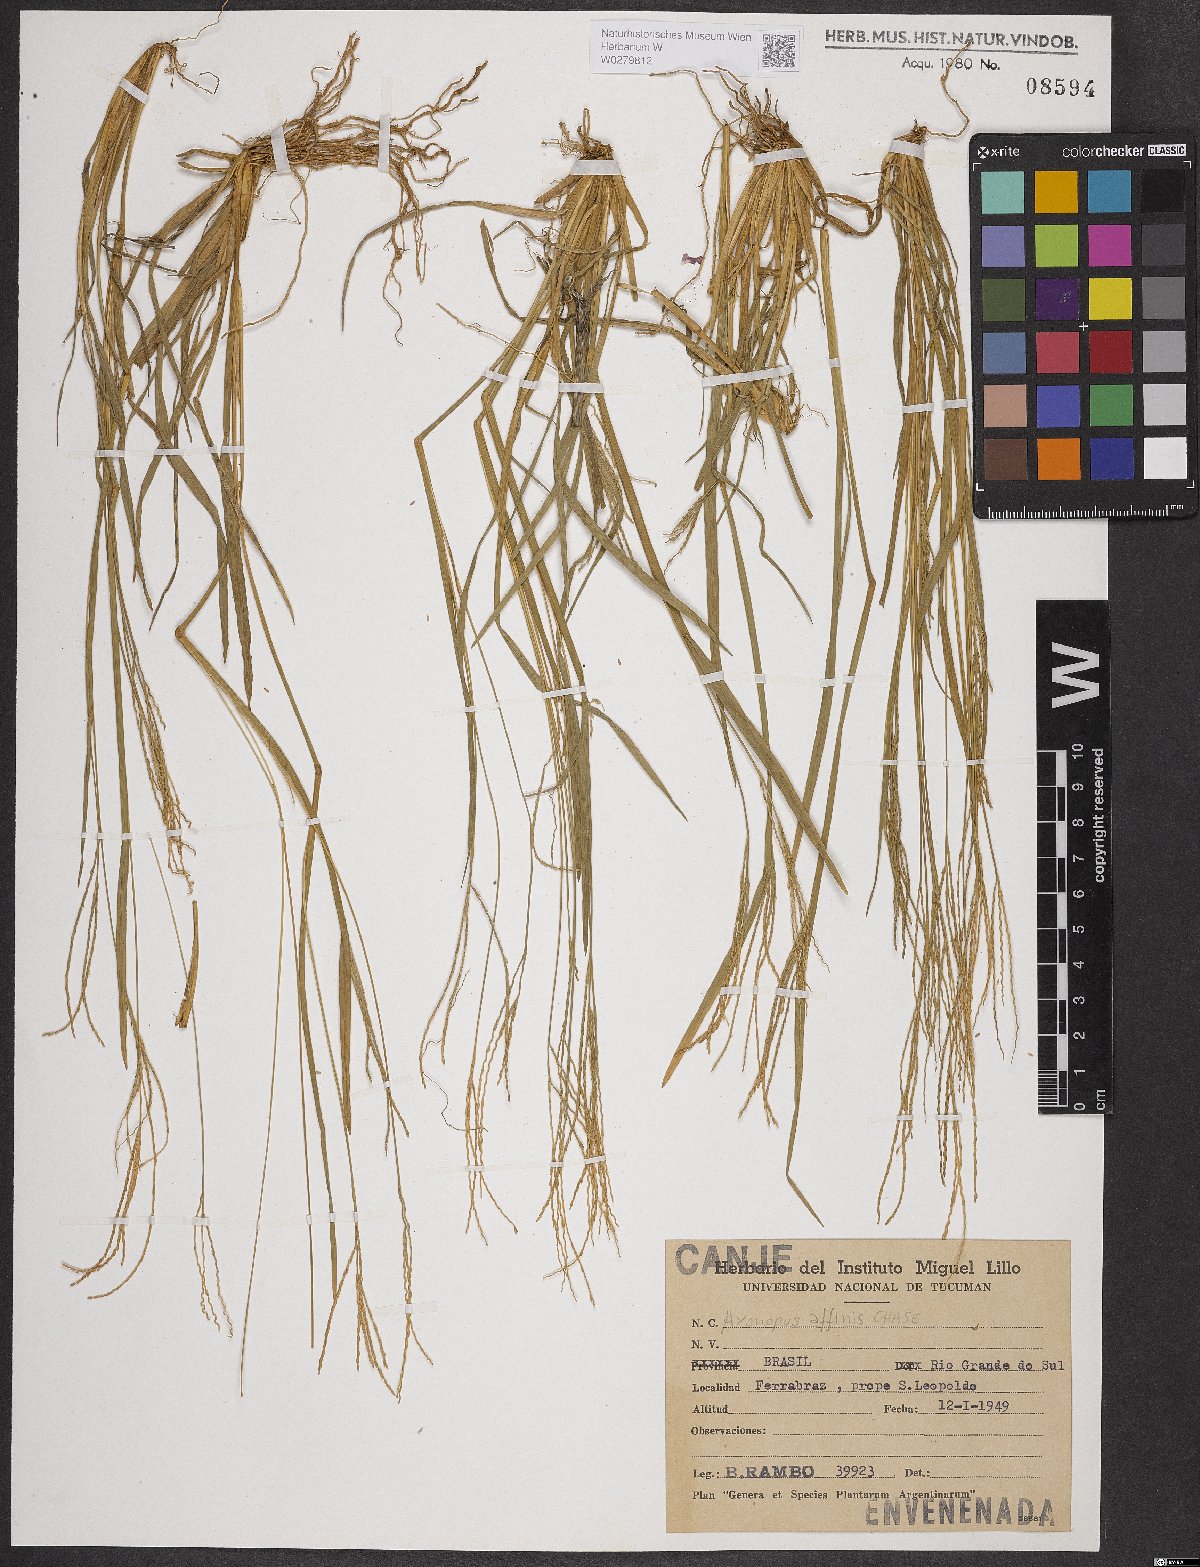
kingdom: Plantae
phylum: Tracheophyta
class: Liliopsida
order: Poales
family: Poaceae
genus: Axonopus
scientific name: Axonopus fissifolius
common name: Common carpetgrass
